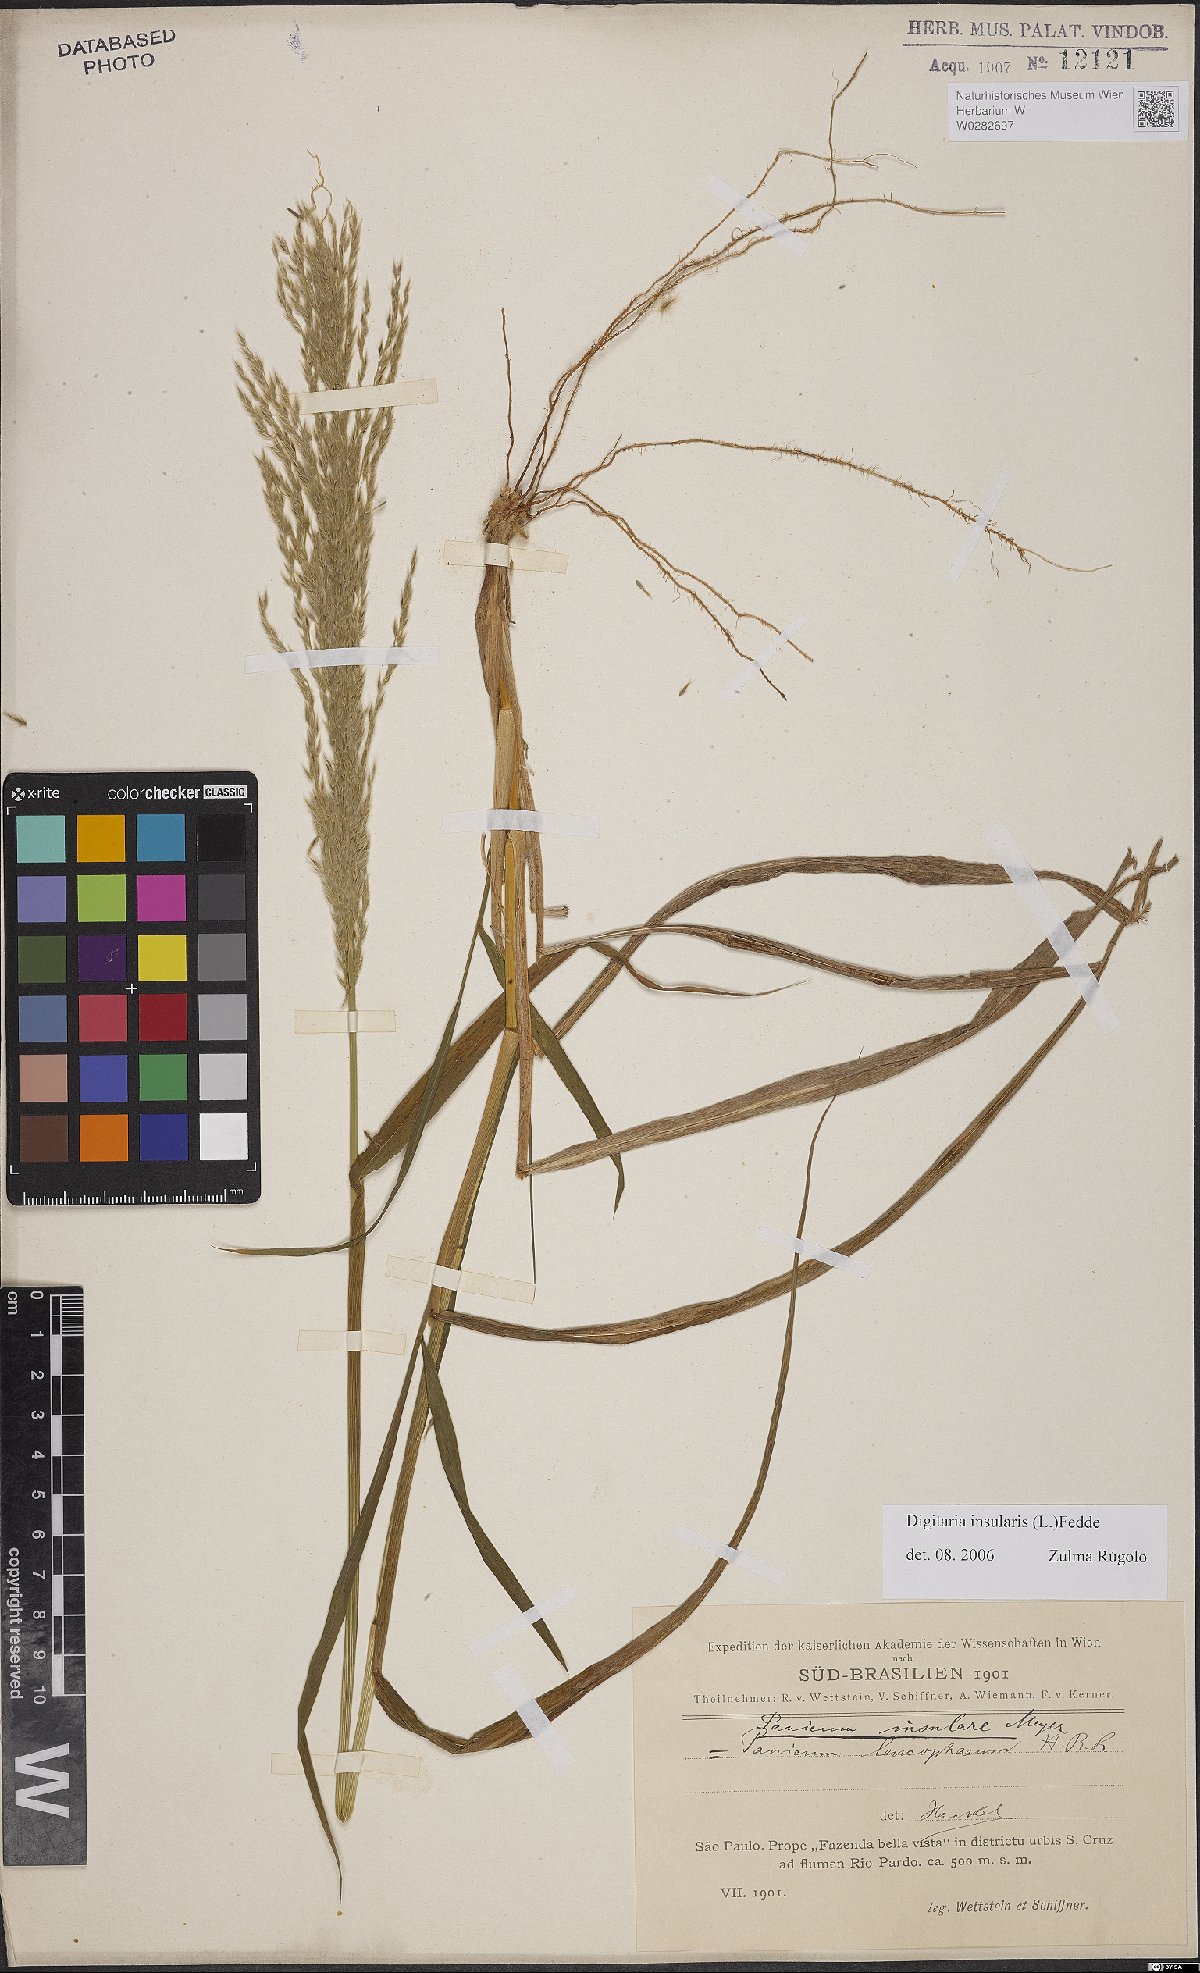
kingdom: Plantae
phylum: Tracheophyta
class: Liliopsida
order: Poales
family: Poaceae
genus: Digitaria
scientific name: Digitaria insularis
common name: Sourgrass
